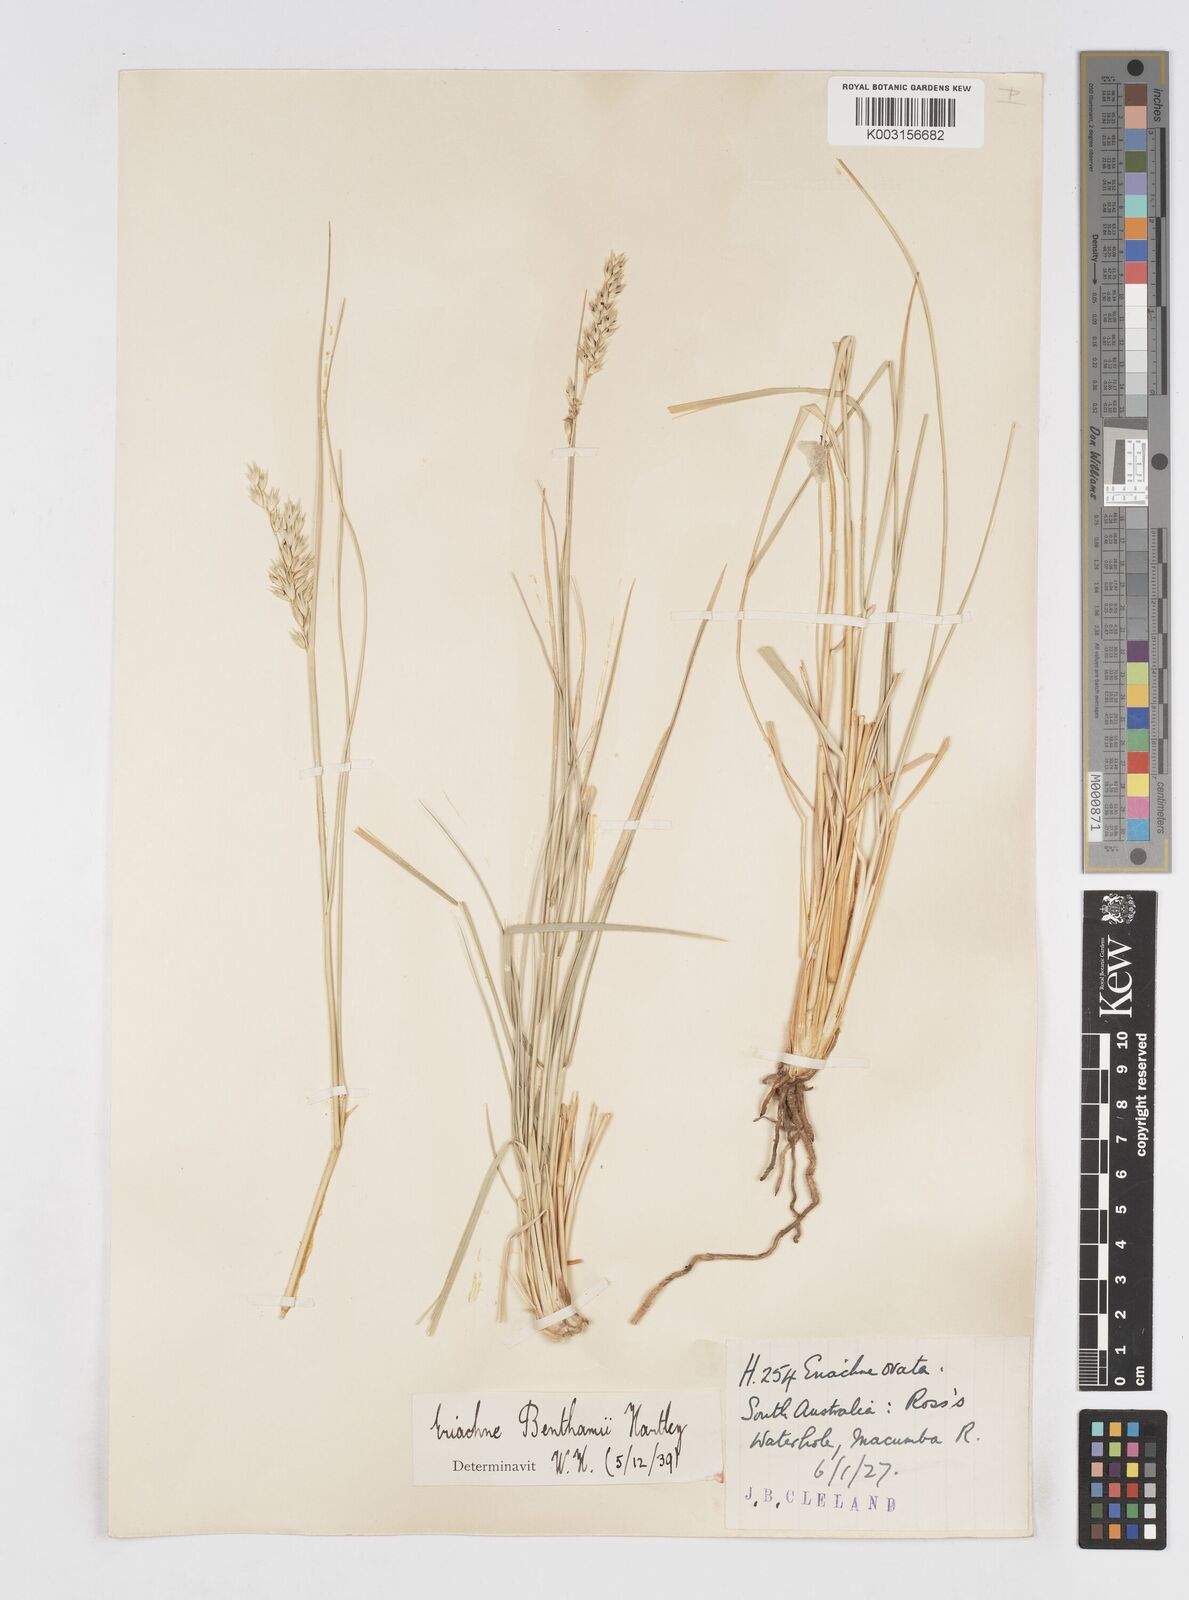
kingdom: Plantae
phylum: Tracheophyta
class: Liliopsida
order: Poales
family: Poaceae
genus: Eriachne
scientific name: Eriachne benthamii
